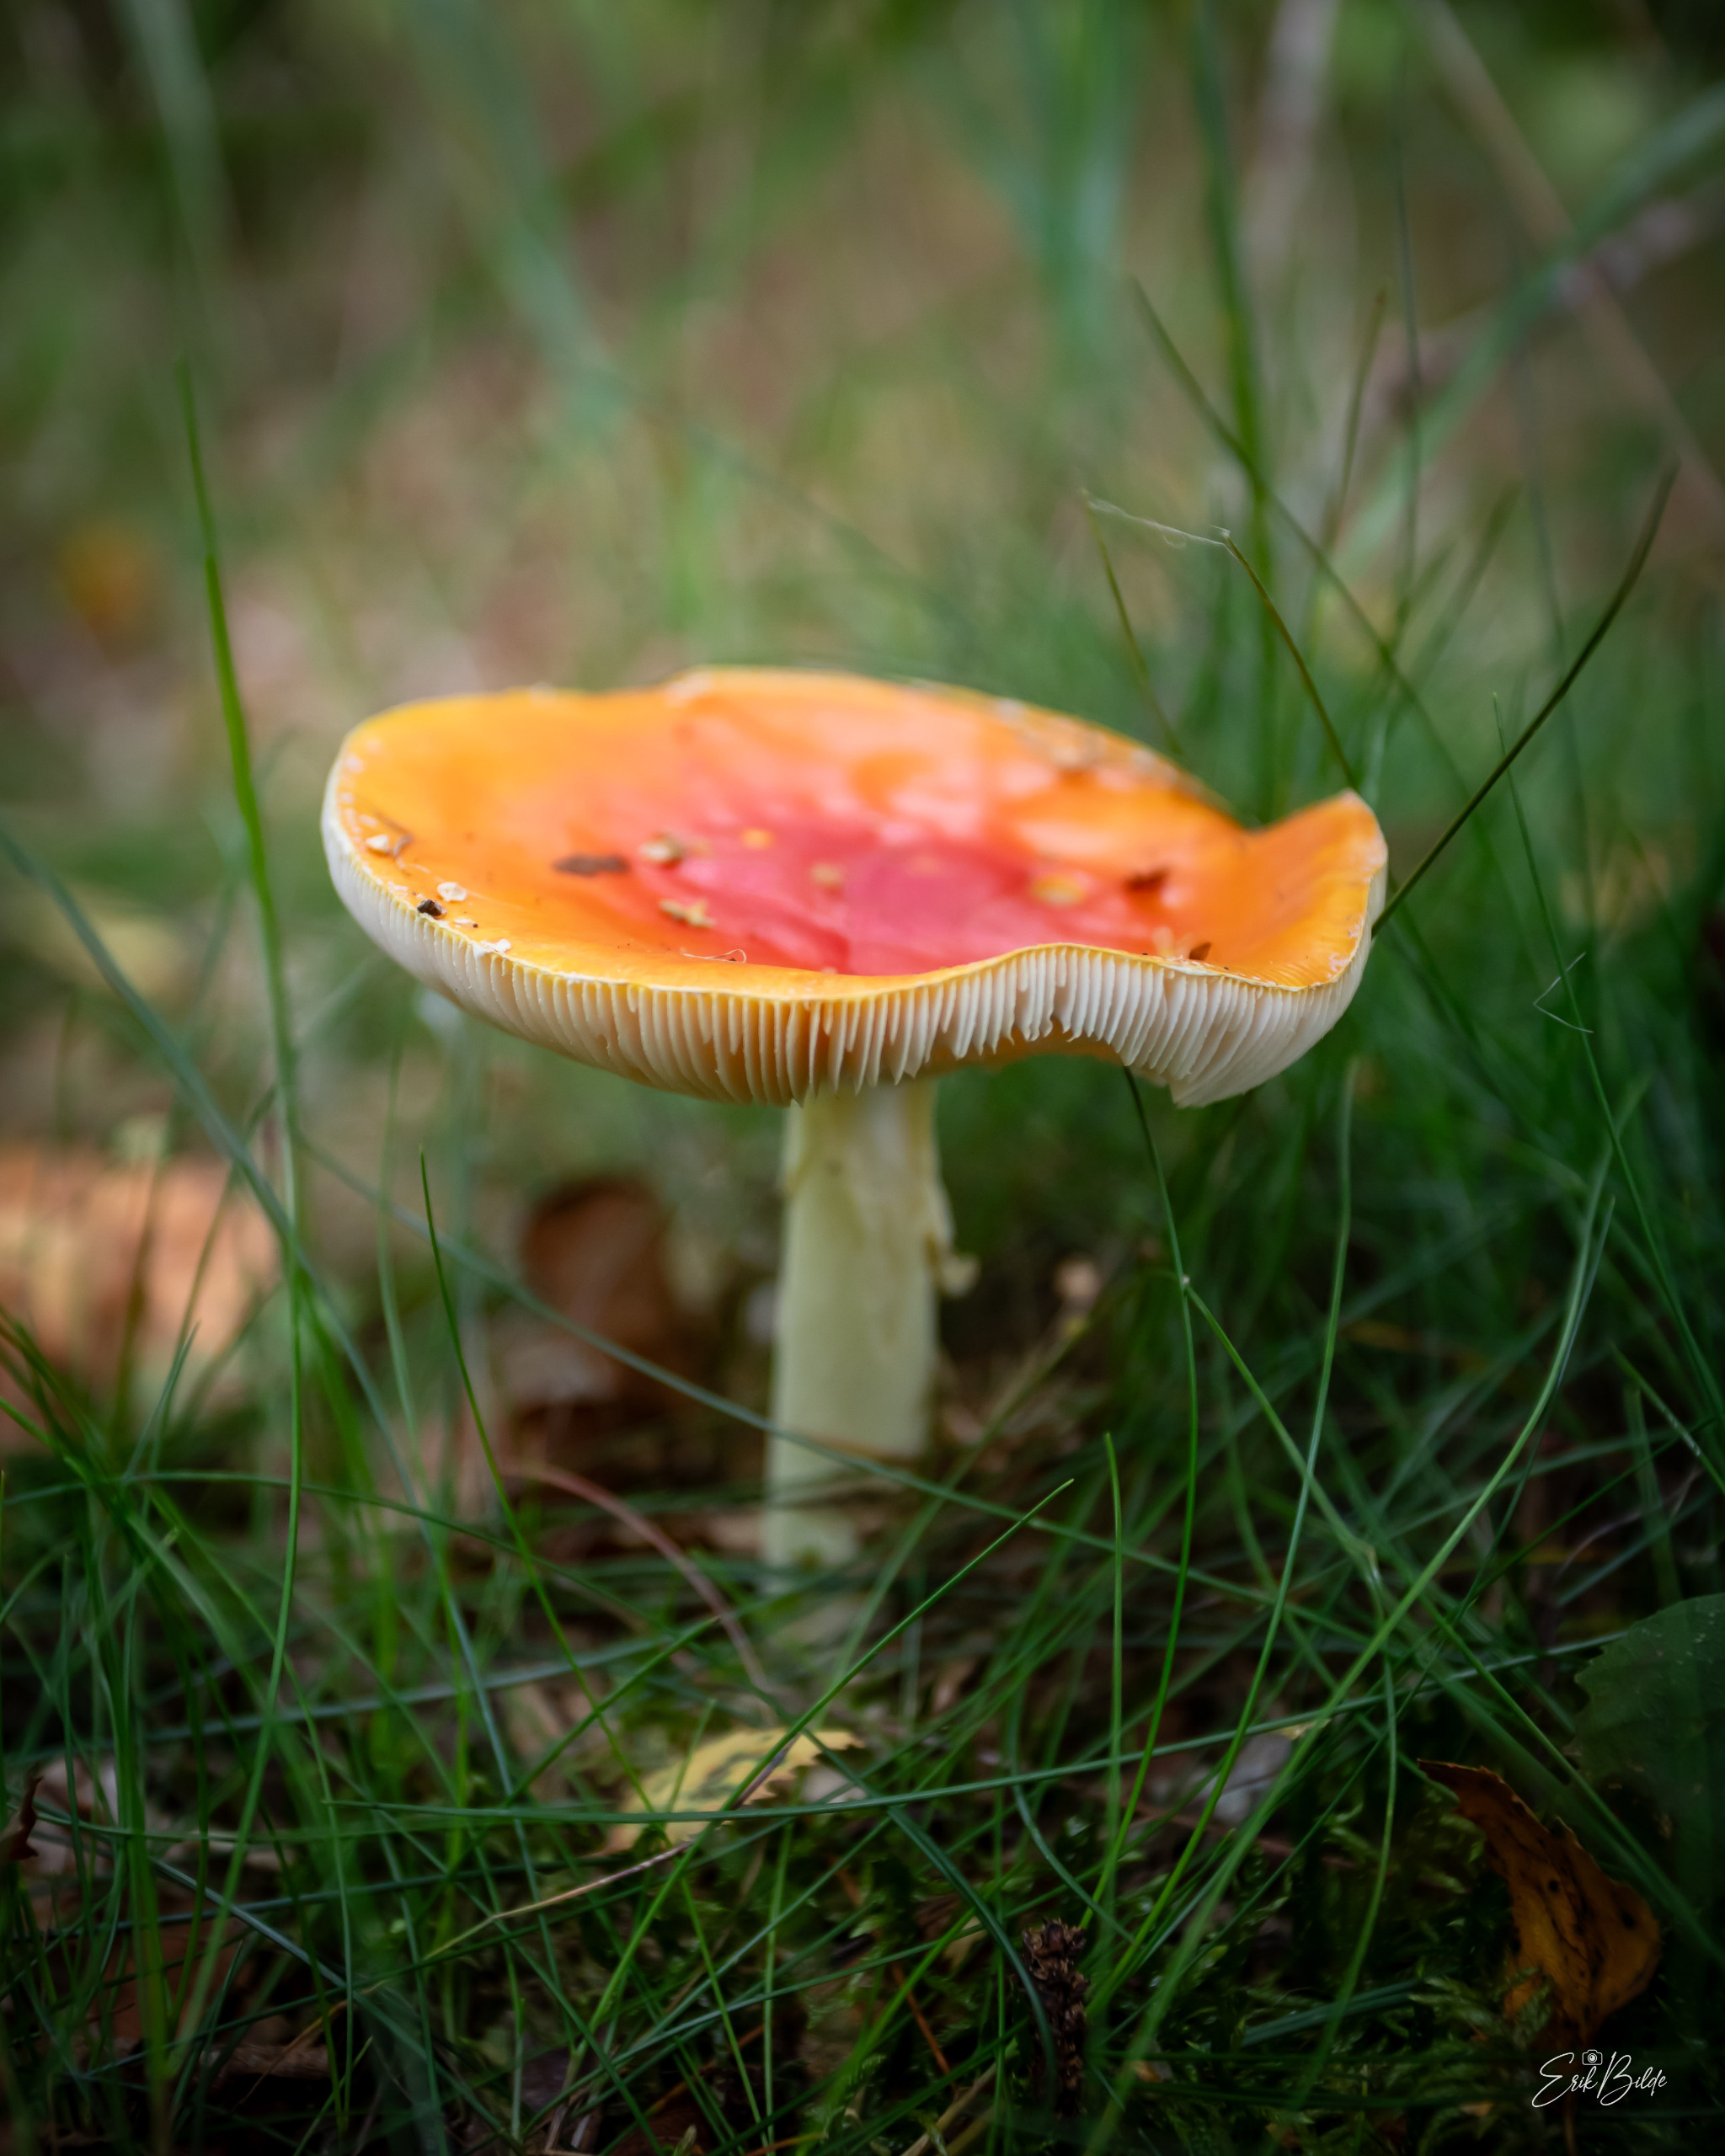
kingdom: Fungi
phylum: Basidiomycota
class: Agaricomycetes
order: Agaricales
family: Amanitaceae
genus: Amanita
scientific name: Amanita muscaria
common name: Rød fluesvamp
